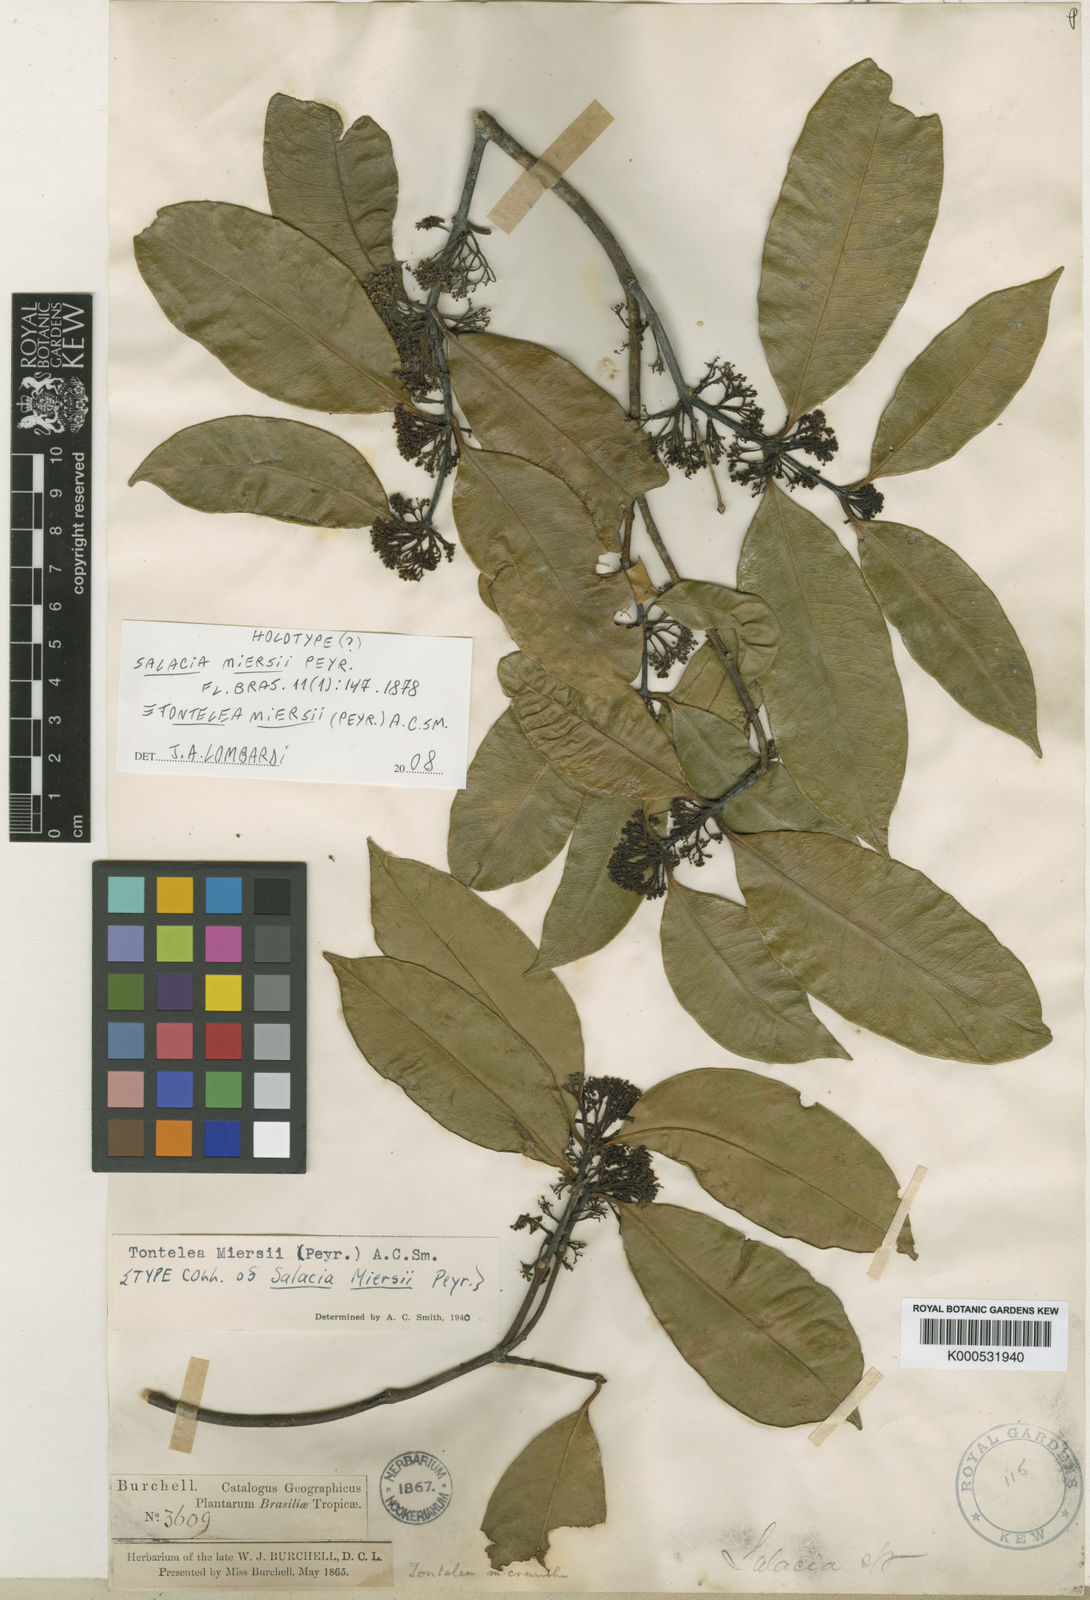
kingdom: Plantae
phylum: Tracheophyta
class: Magnoliopsida
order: Celastrales
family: Celastraceae
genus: Tontelea
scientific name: Tontelea miersii
